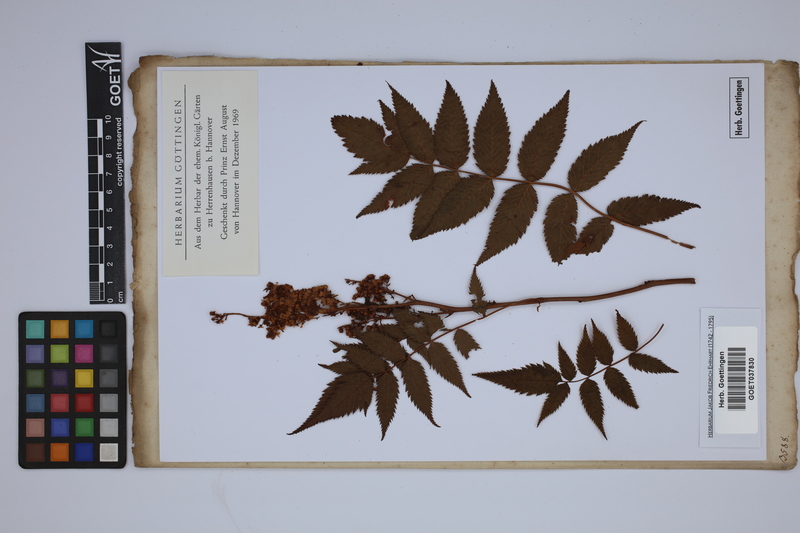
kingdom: Plantae
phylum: Tracheophyta
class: Magnoliopsida
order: Rosales
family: Rosaceae
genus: Sorbaria
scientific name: Sorbaria
